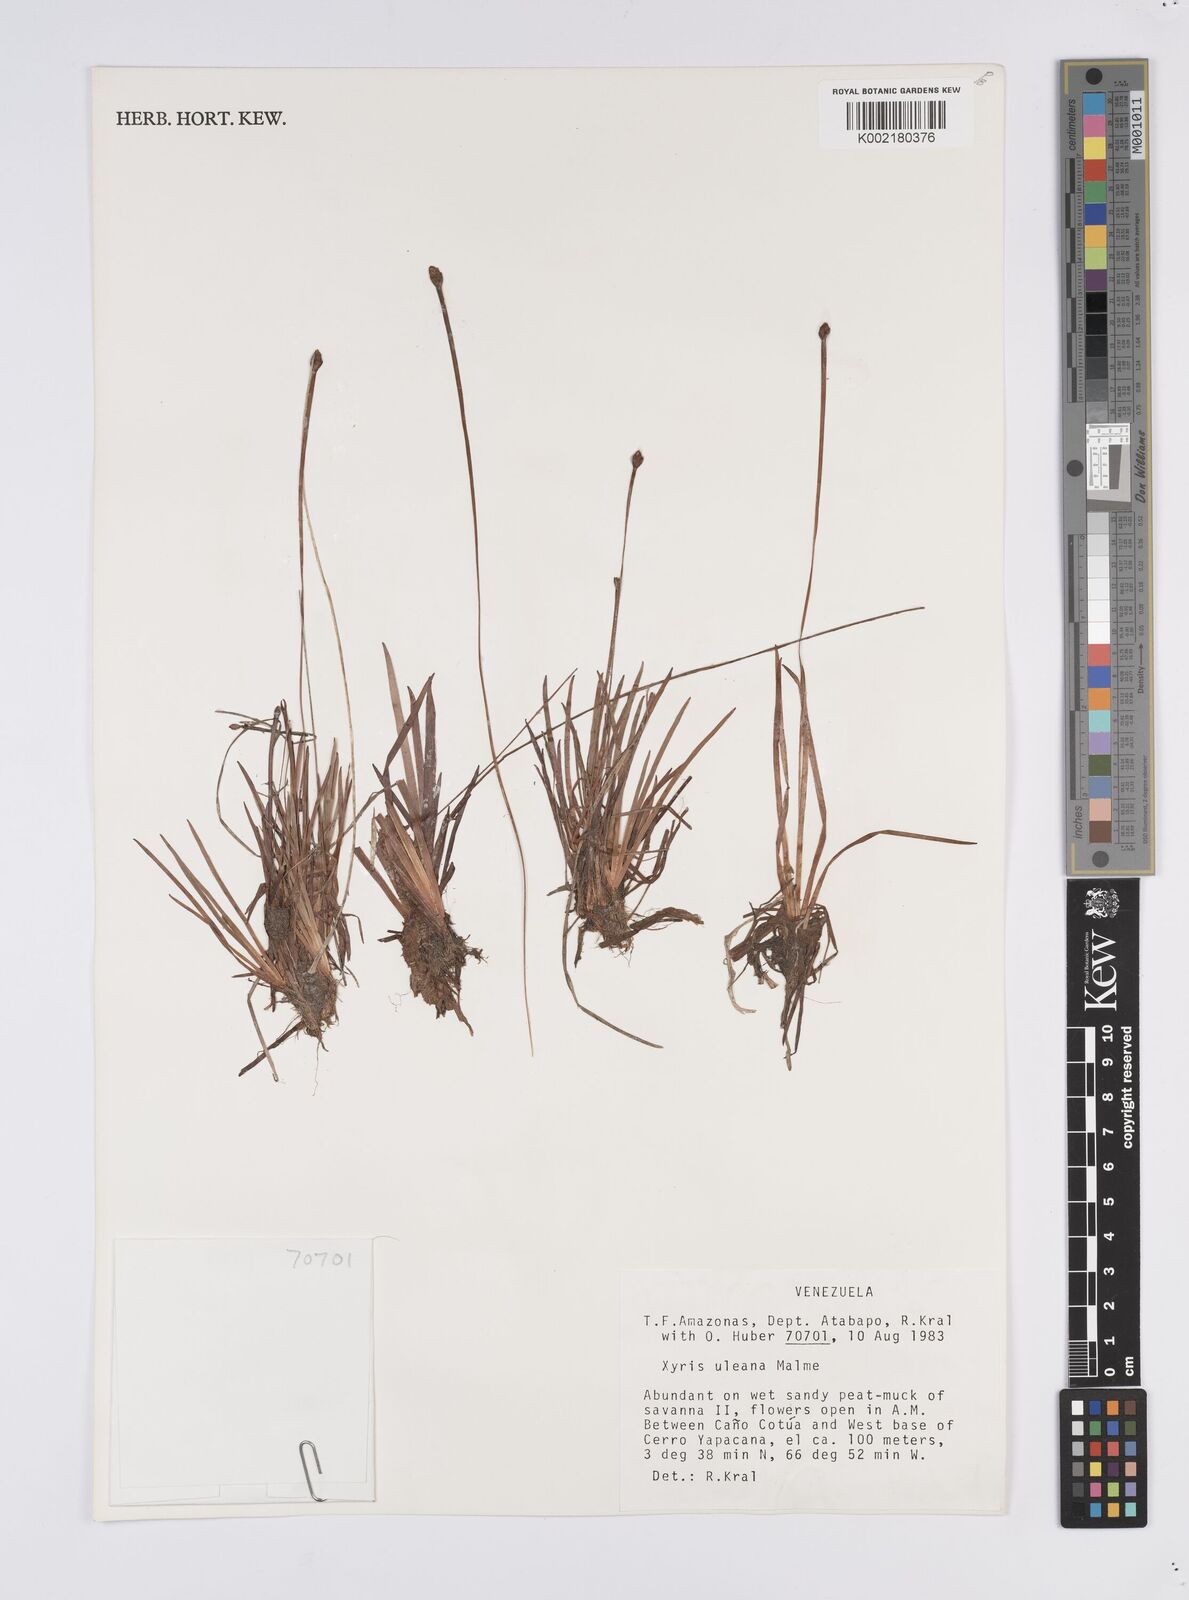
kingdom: Plantae
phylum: Tracheophyta
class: Liliopsida
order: Poales
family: Xyridaceae
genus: Xyris
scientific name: Xyris uleana
